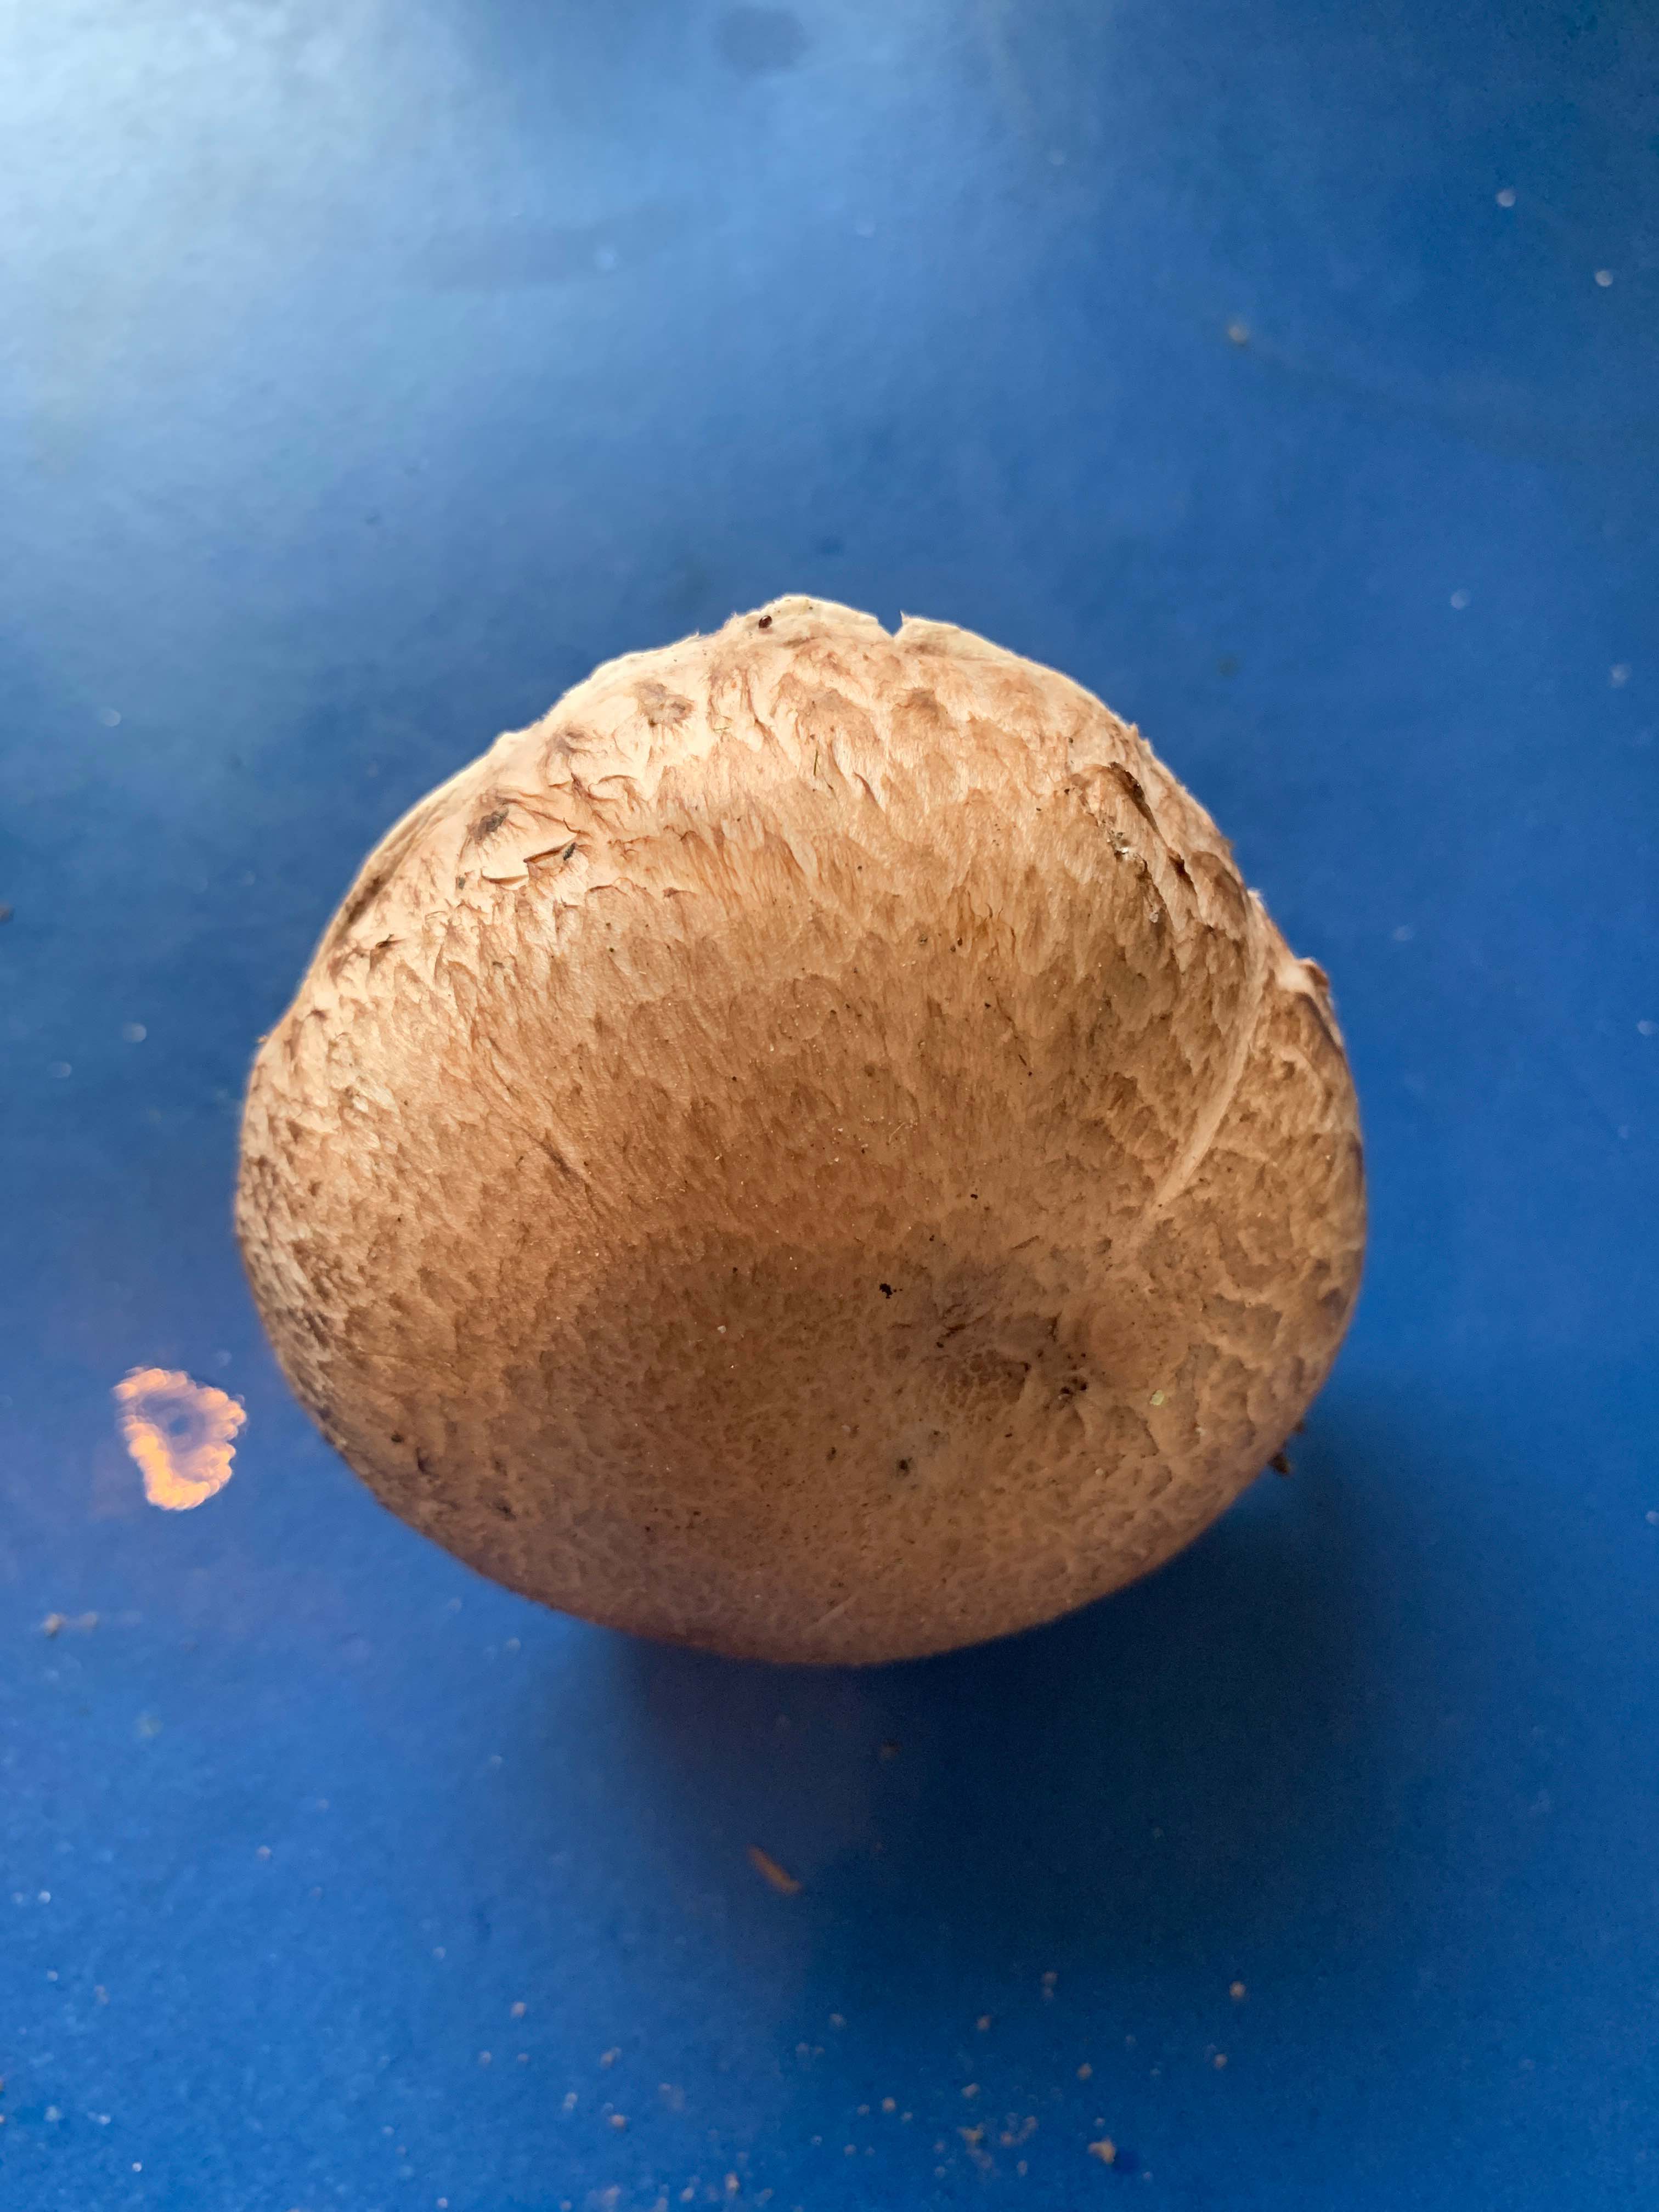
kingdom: Fungi
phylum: Basidiomycota
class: Agaricomycetes
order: Agaricales
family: Agaricaceae
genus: Agaricus
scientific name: Agaricus
